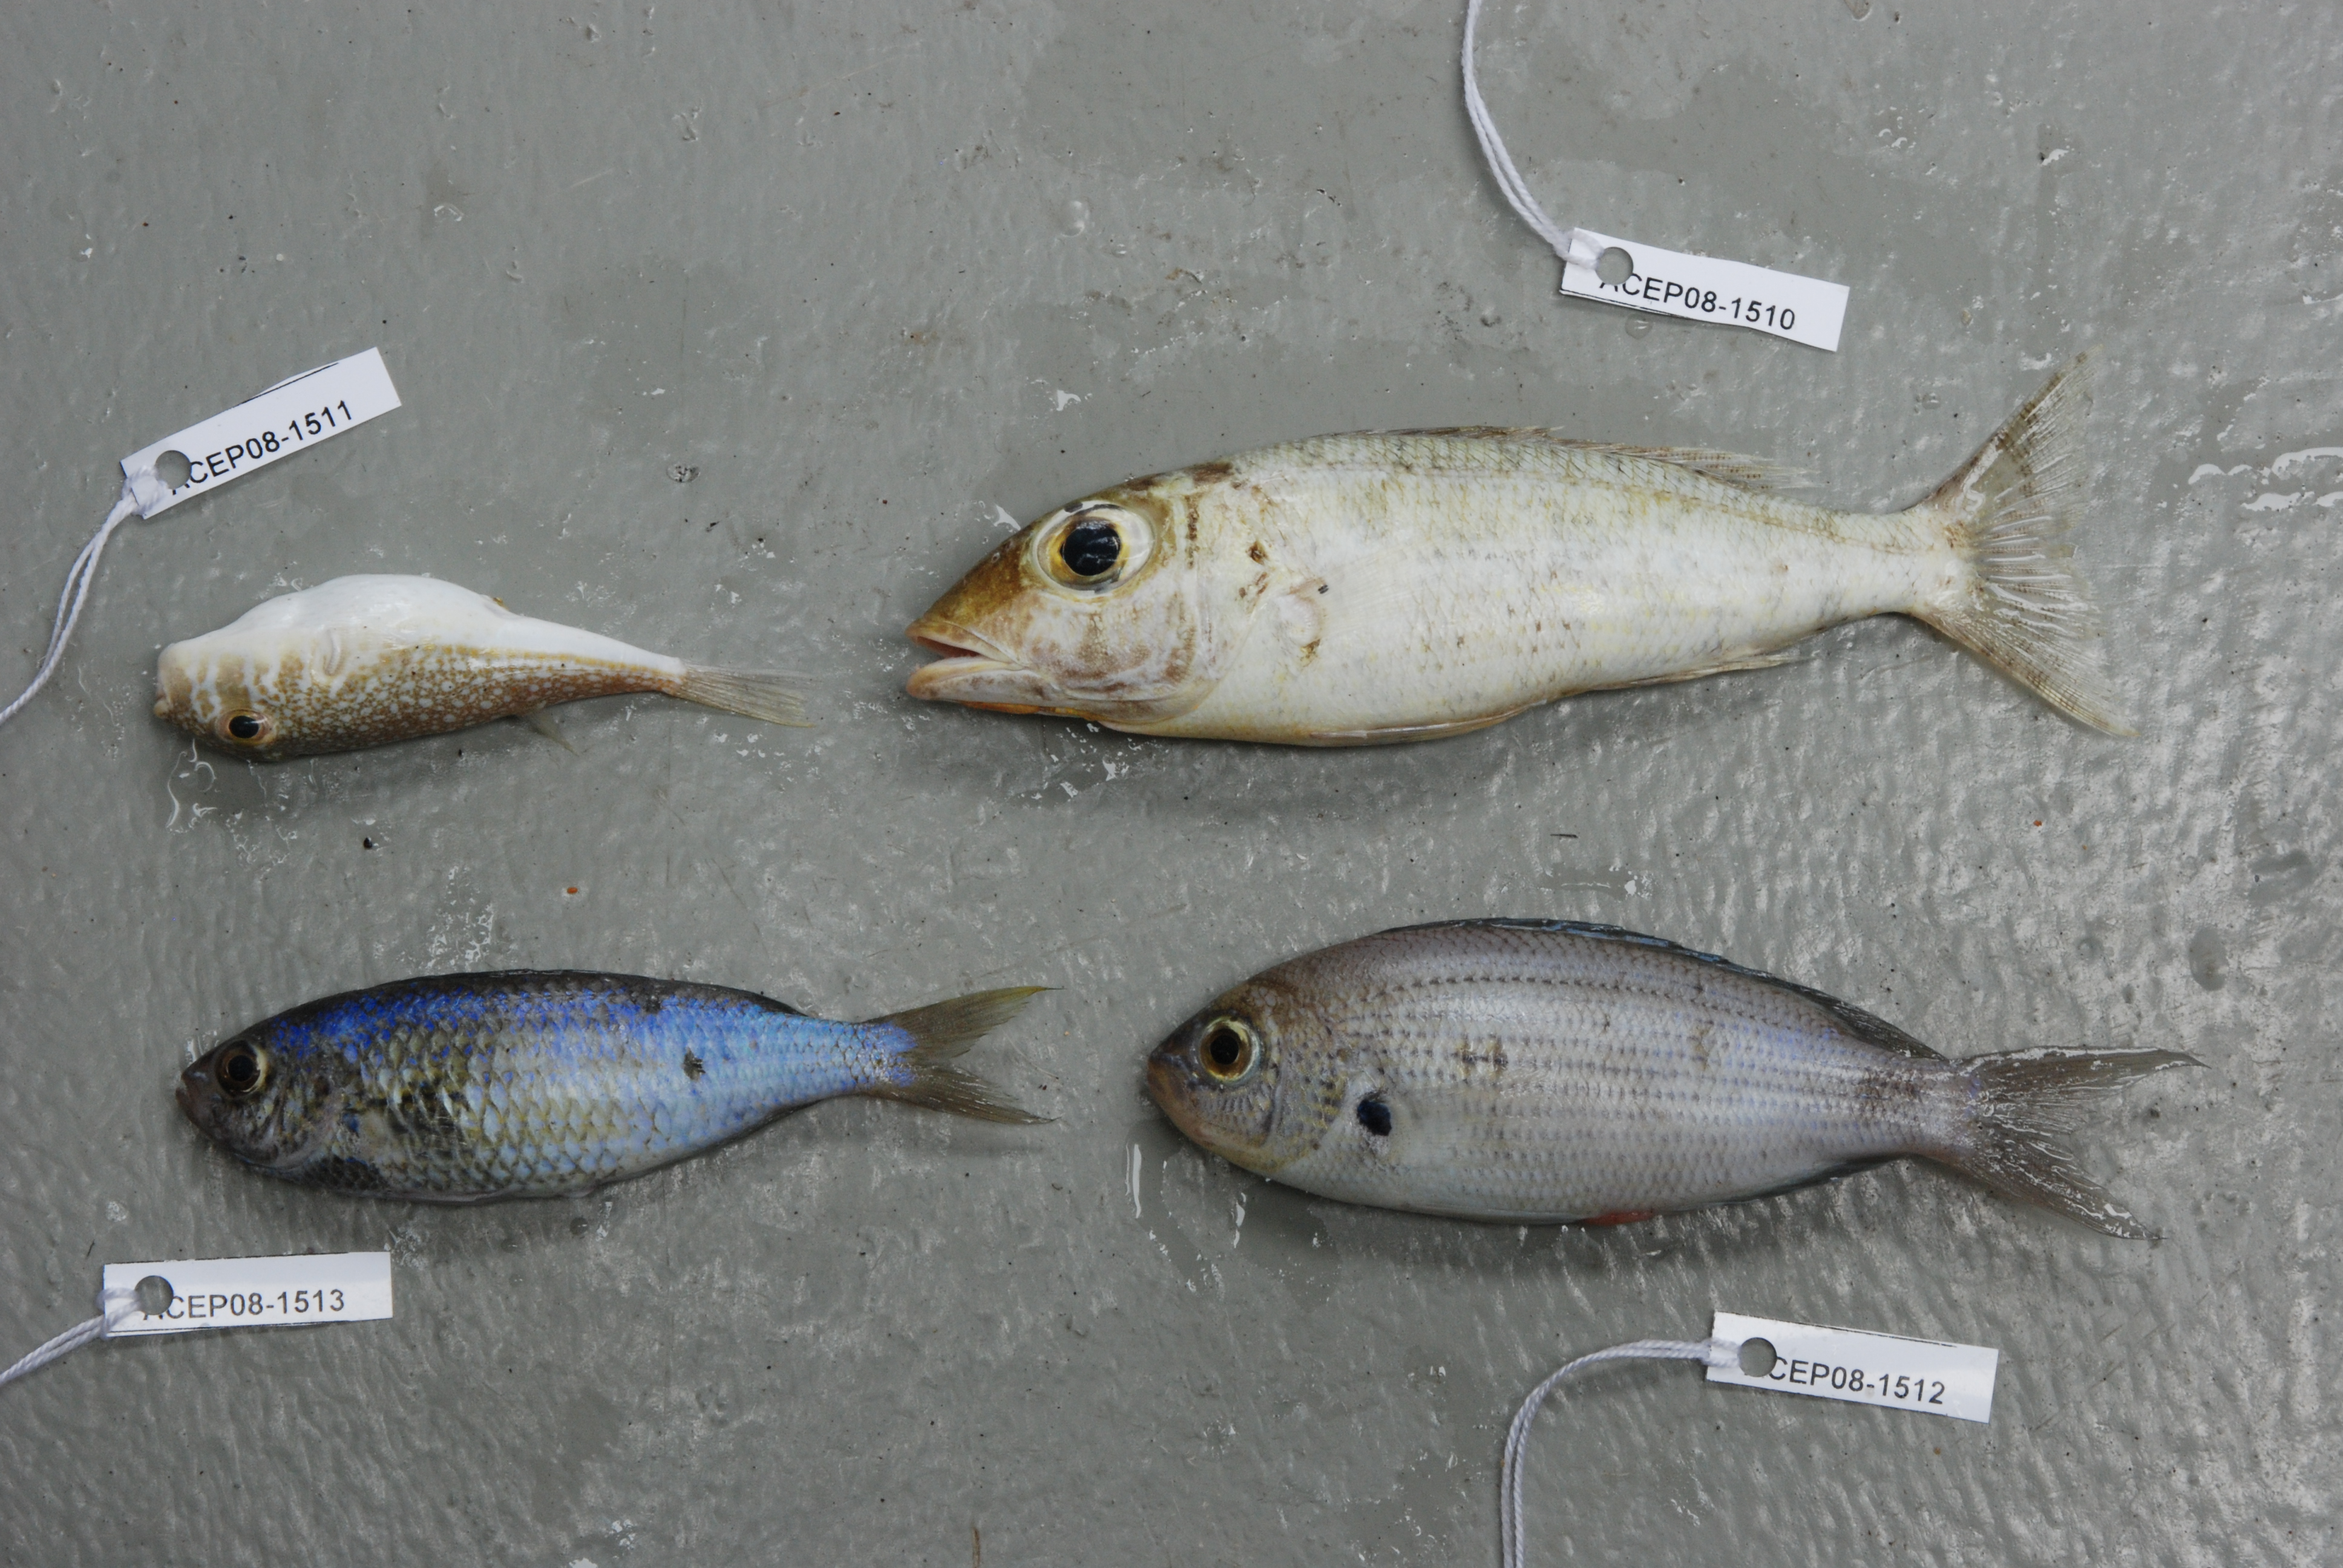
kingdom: Animalia
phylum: Chordata
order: Perciformes
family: Lethrinidae
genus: Lethrinus
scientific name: Lethrinus
